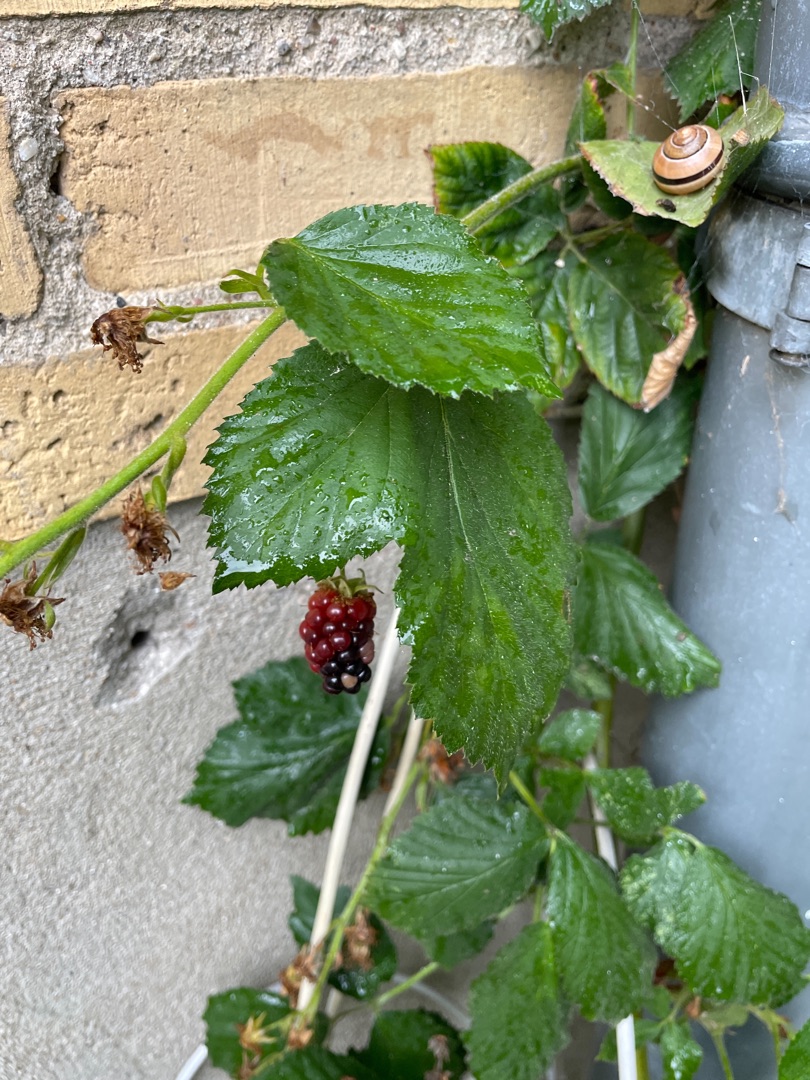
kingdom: Plantae
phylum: Tracheophyta
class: Magnoliopsida
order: Rosales
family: Rosaceae
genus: Rubus
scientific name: Rubus
